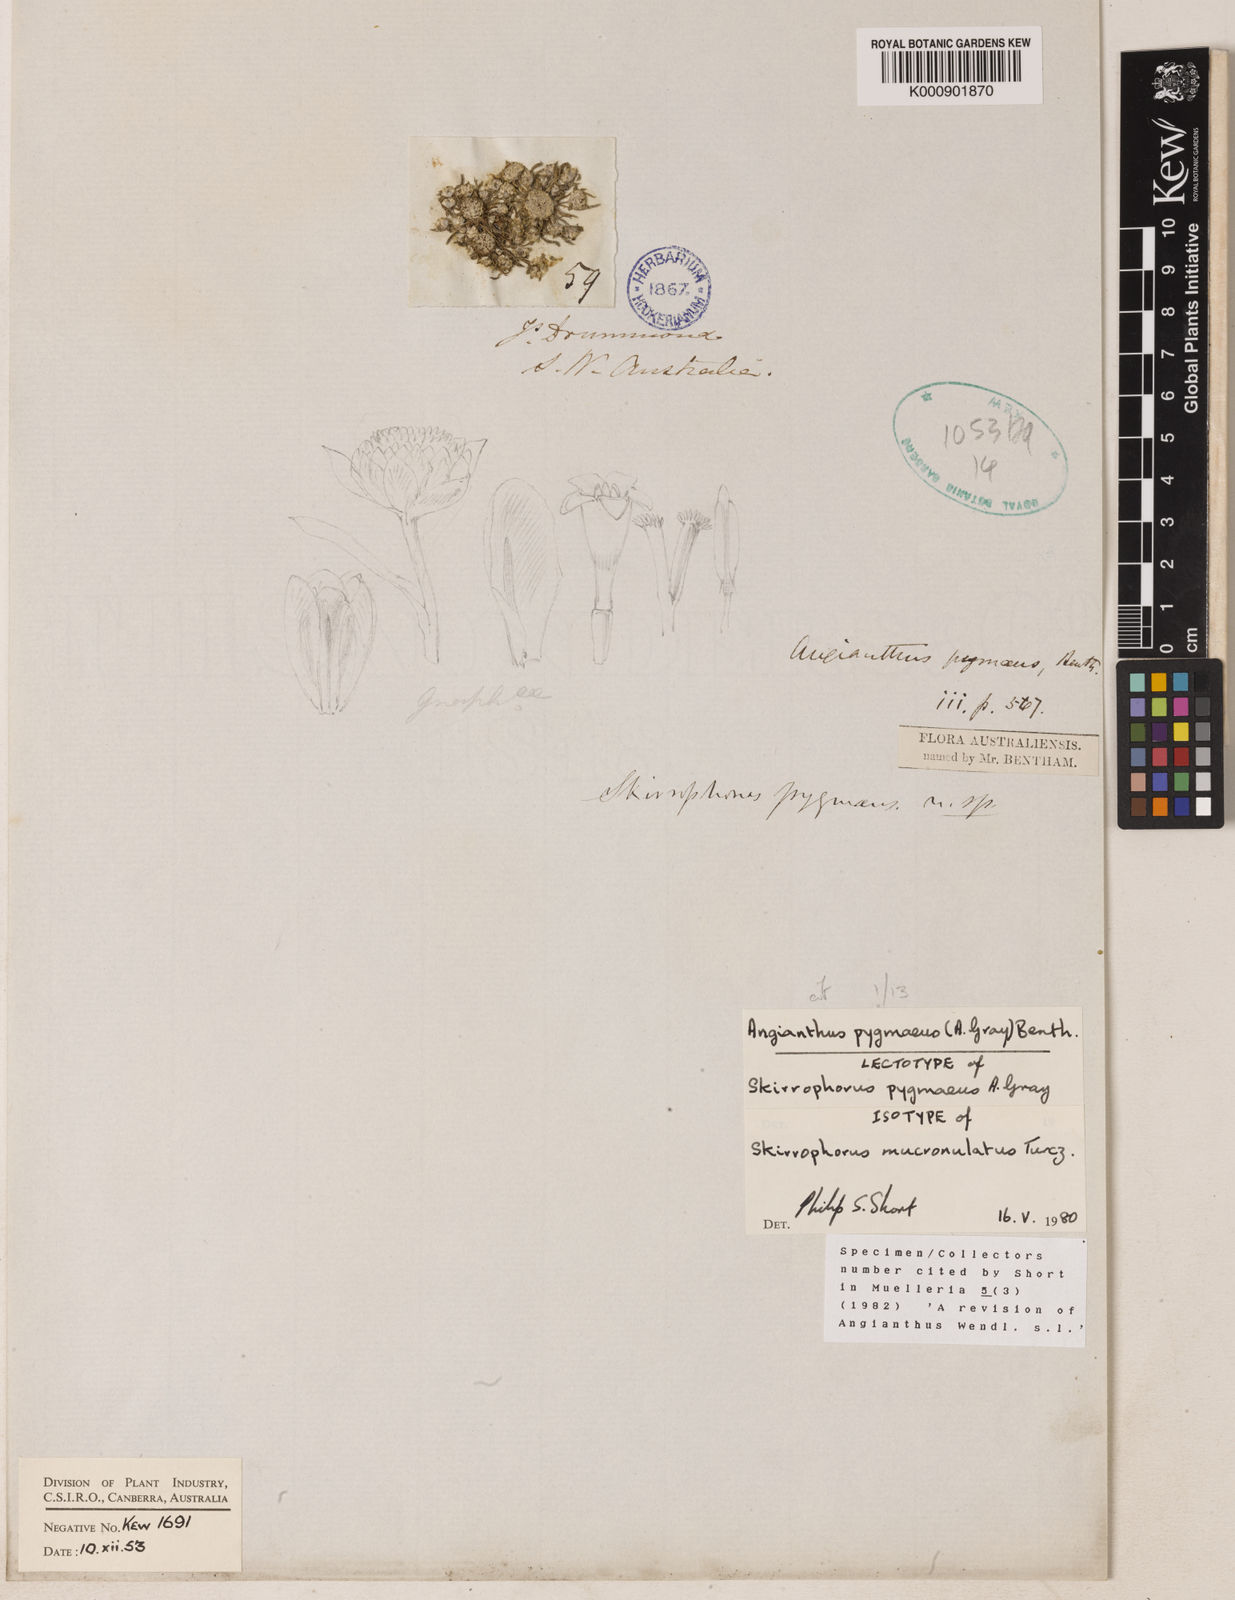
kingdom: Plantae
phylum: Tracheophyta
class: Magnoliopsida
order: Asterales
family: Asteraceae
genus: Angianthus
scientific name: Angianthus pygmaeus
